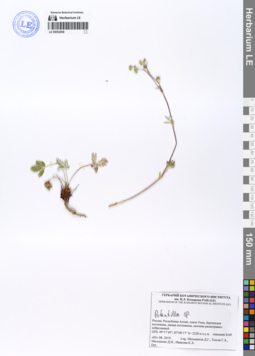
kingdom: Plantae
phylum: Tracheophyta
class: Magnoliopsida
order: Rosales
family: Rosaceae
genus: Potentilla
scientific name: Potentilla
